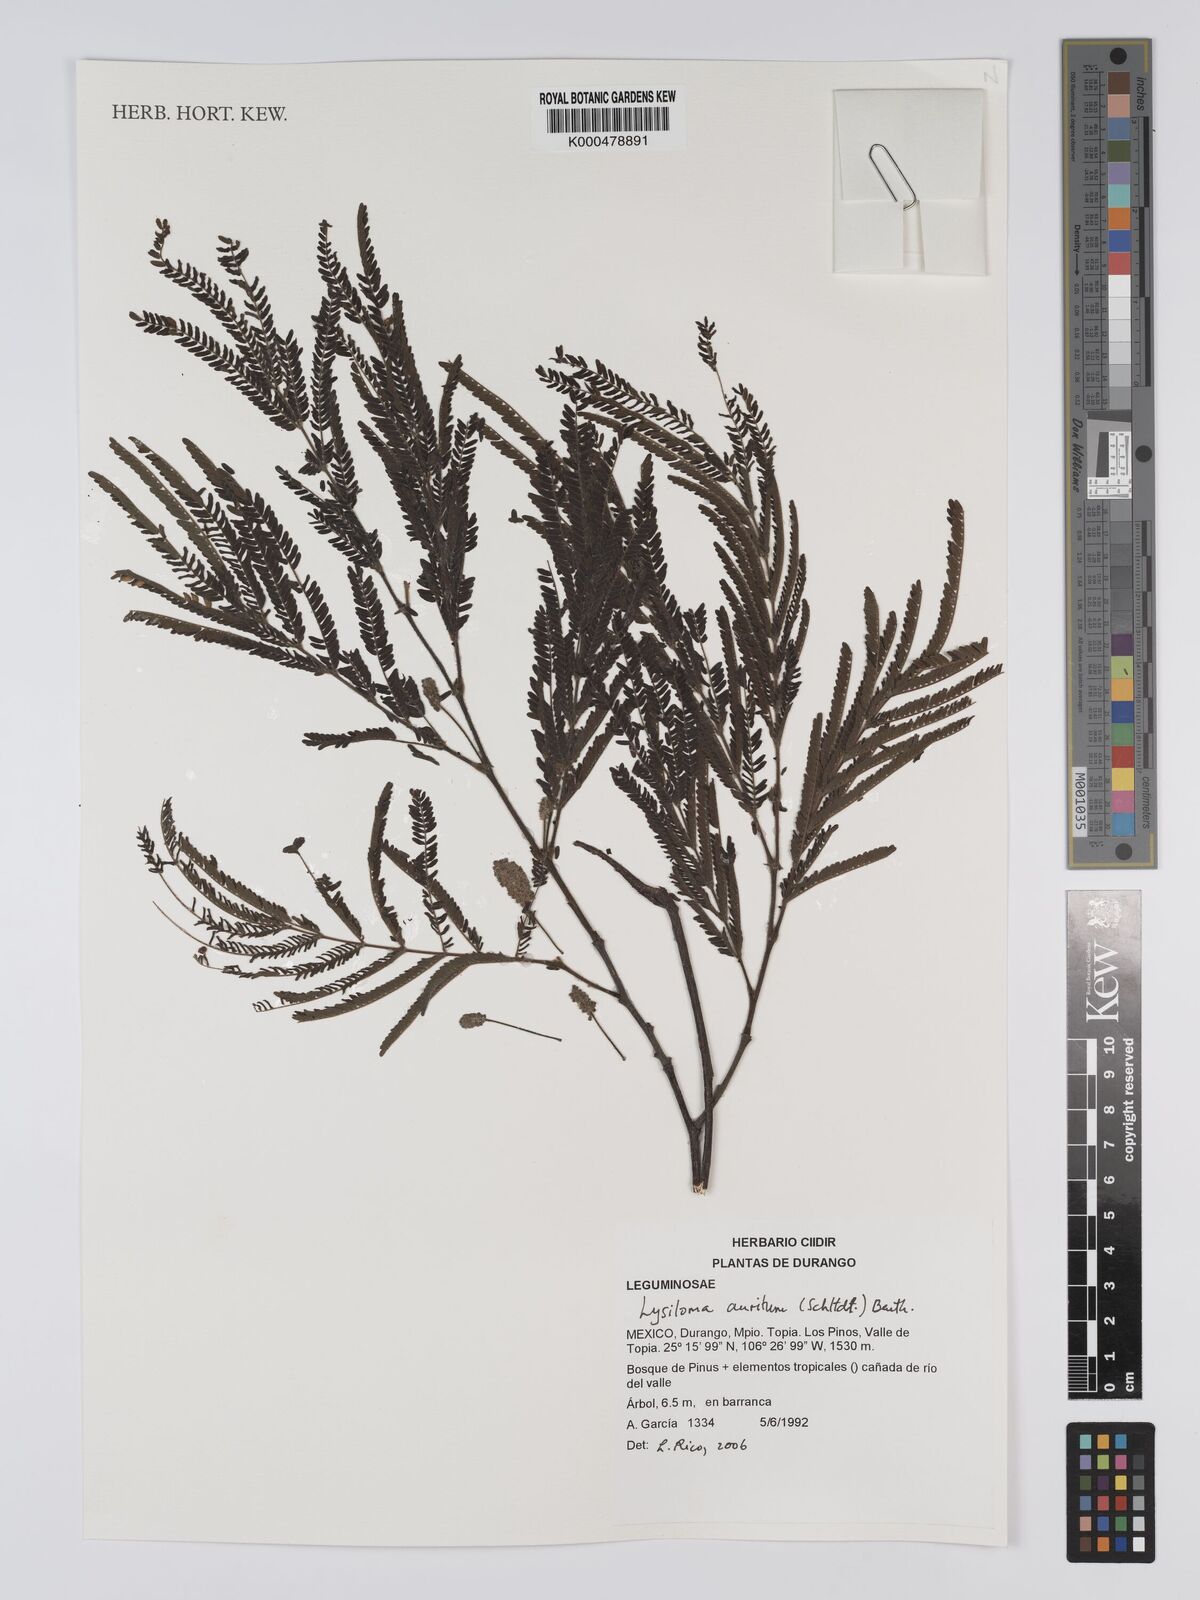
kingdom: Plantae
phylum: Tracheophyta
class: Magnoliopsida
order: Fabales
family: Fabaceae
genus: Lysiloma
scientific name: Lysiloma auritum
